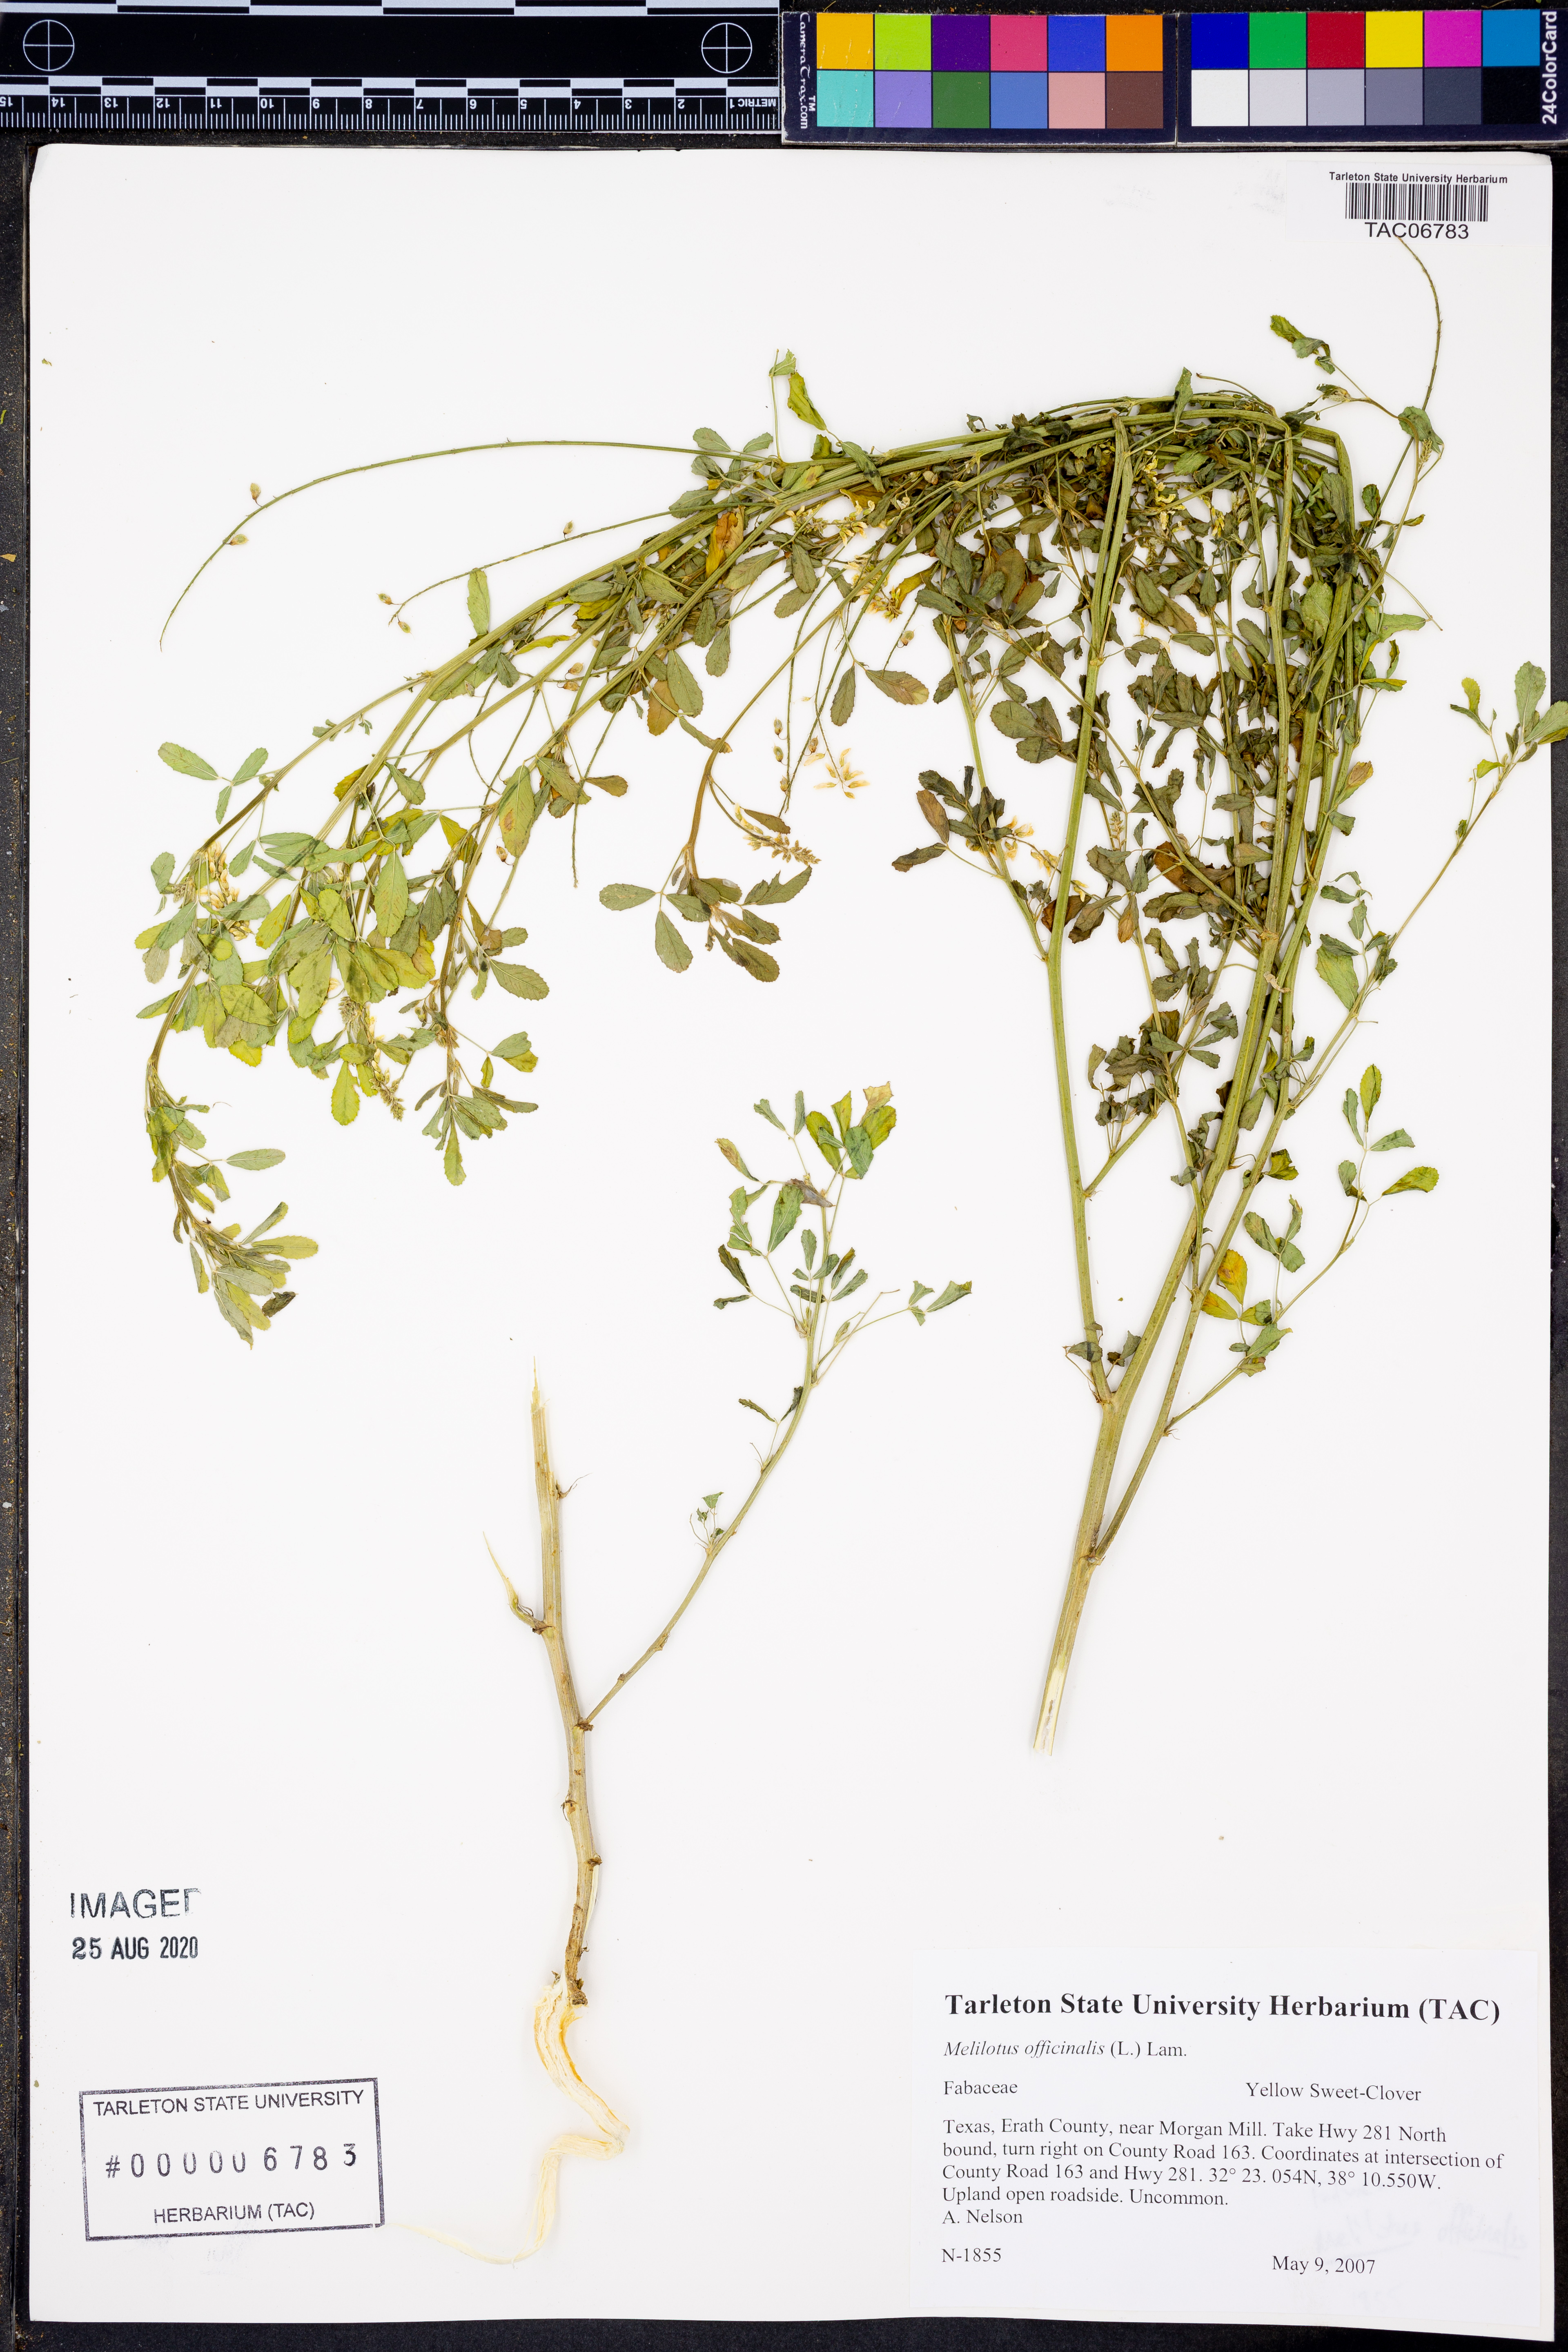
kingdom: Plantae
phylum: Tracheophyta
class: Magnoliopsida
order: Fabales
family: Fabaceae
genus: Melilotus
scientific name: Melilotus officinalis
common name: Sweetclover
